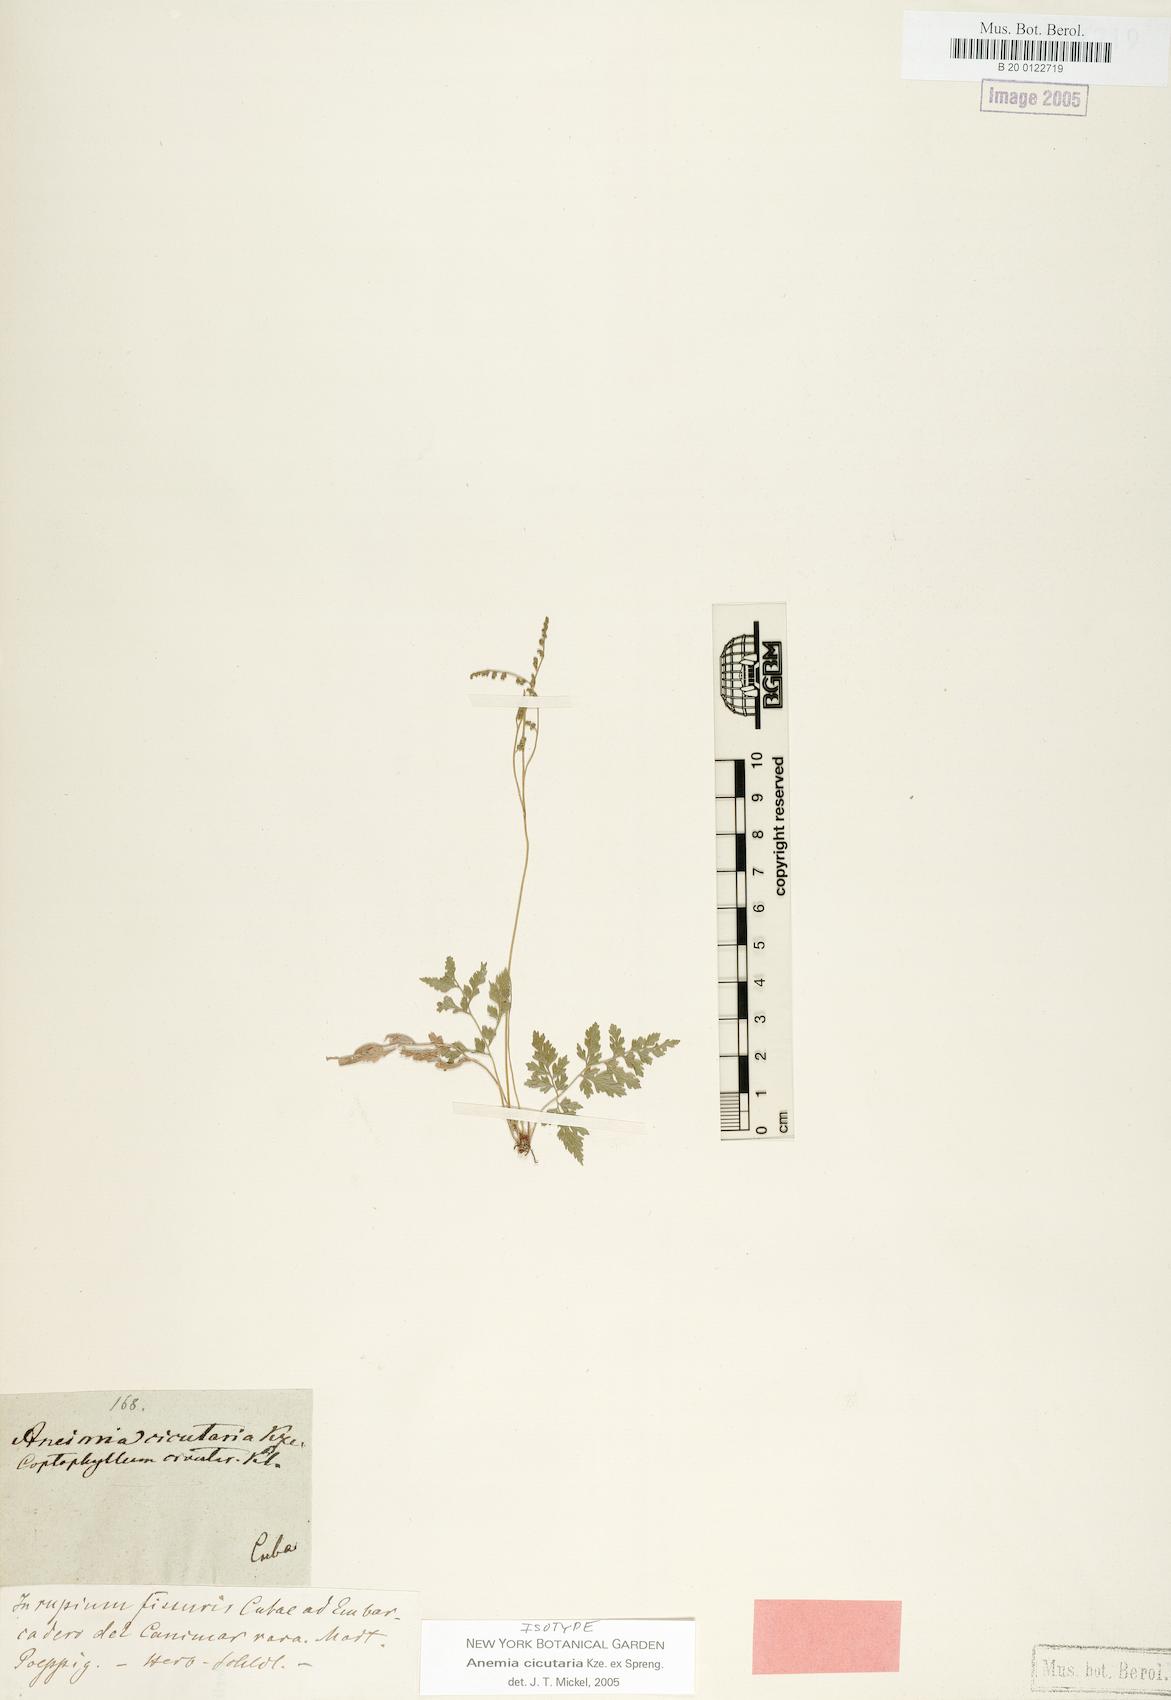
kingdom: Plantae
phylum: Tracheophyta
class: Polypodiopsida
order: Schizaeales
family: Anemiaceae
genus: Anemia
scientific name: Anemia cicutaria
